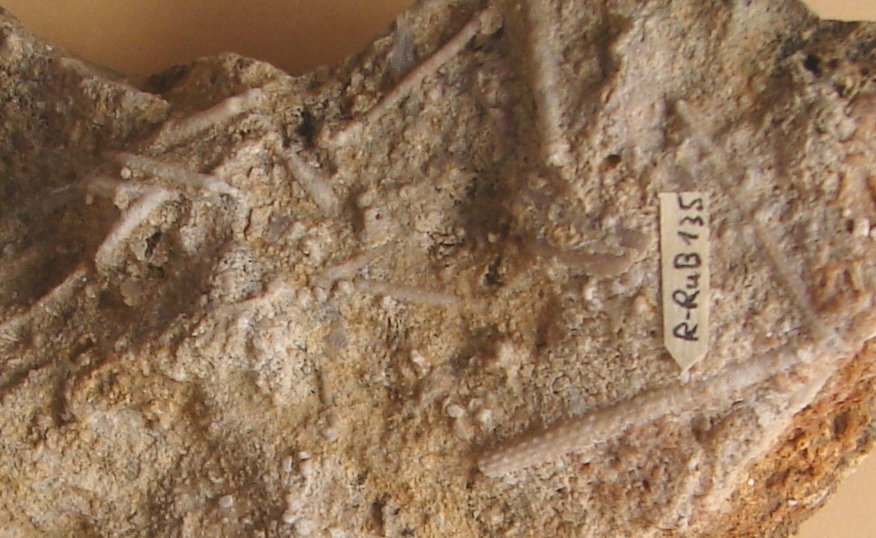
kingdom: Animalia
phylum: Echinodermata
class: Echinoidea
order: Cidaroida
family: Polycidaridae
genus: Anisocidaris
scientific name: Anisocidaris
